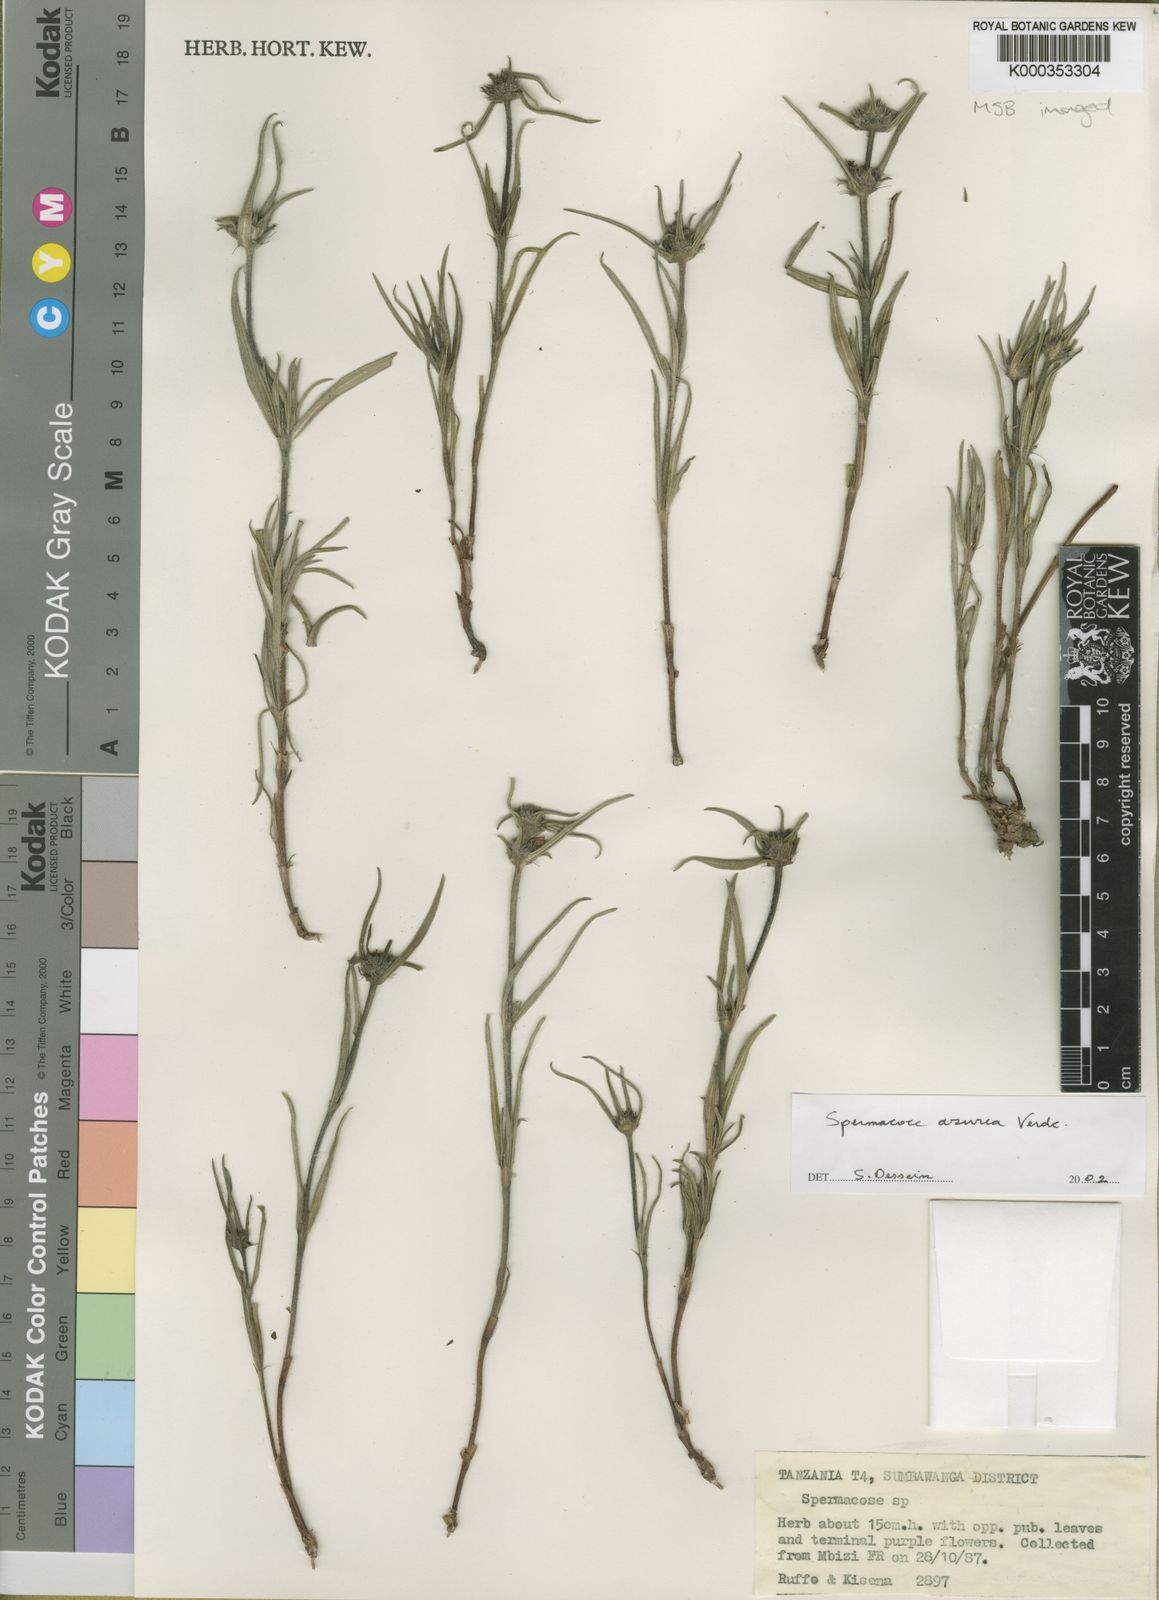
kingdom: Plantae
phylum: Tracheophyta
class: Magnoliopsida
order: Gentianales
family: Rubiaceae
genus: Spermacoce
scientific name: Spermacoce azurea
